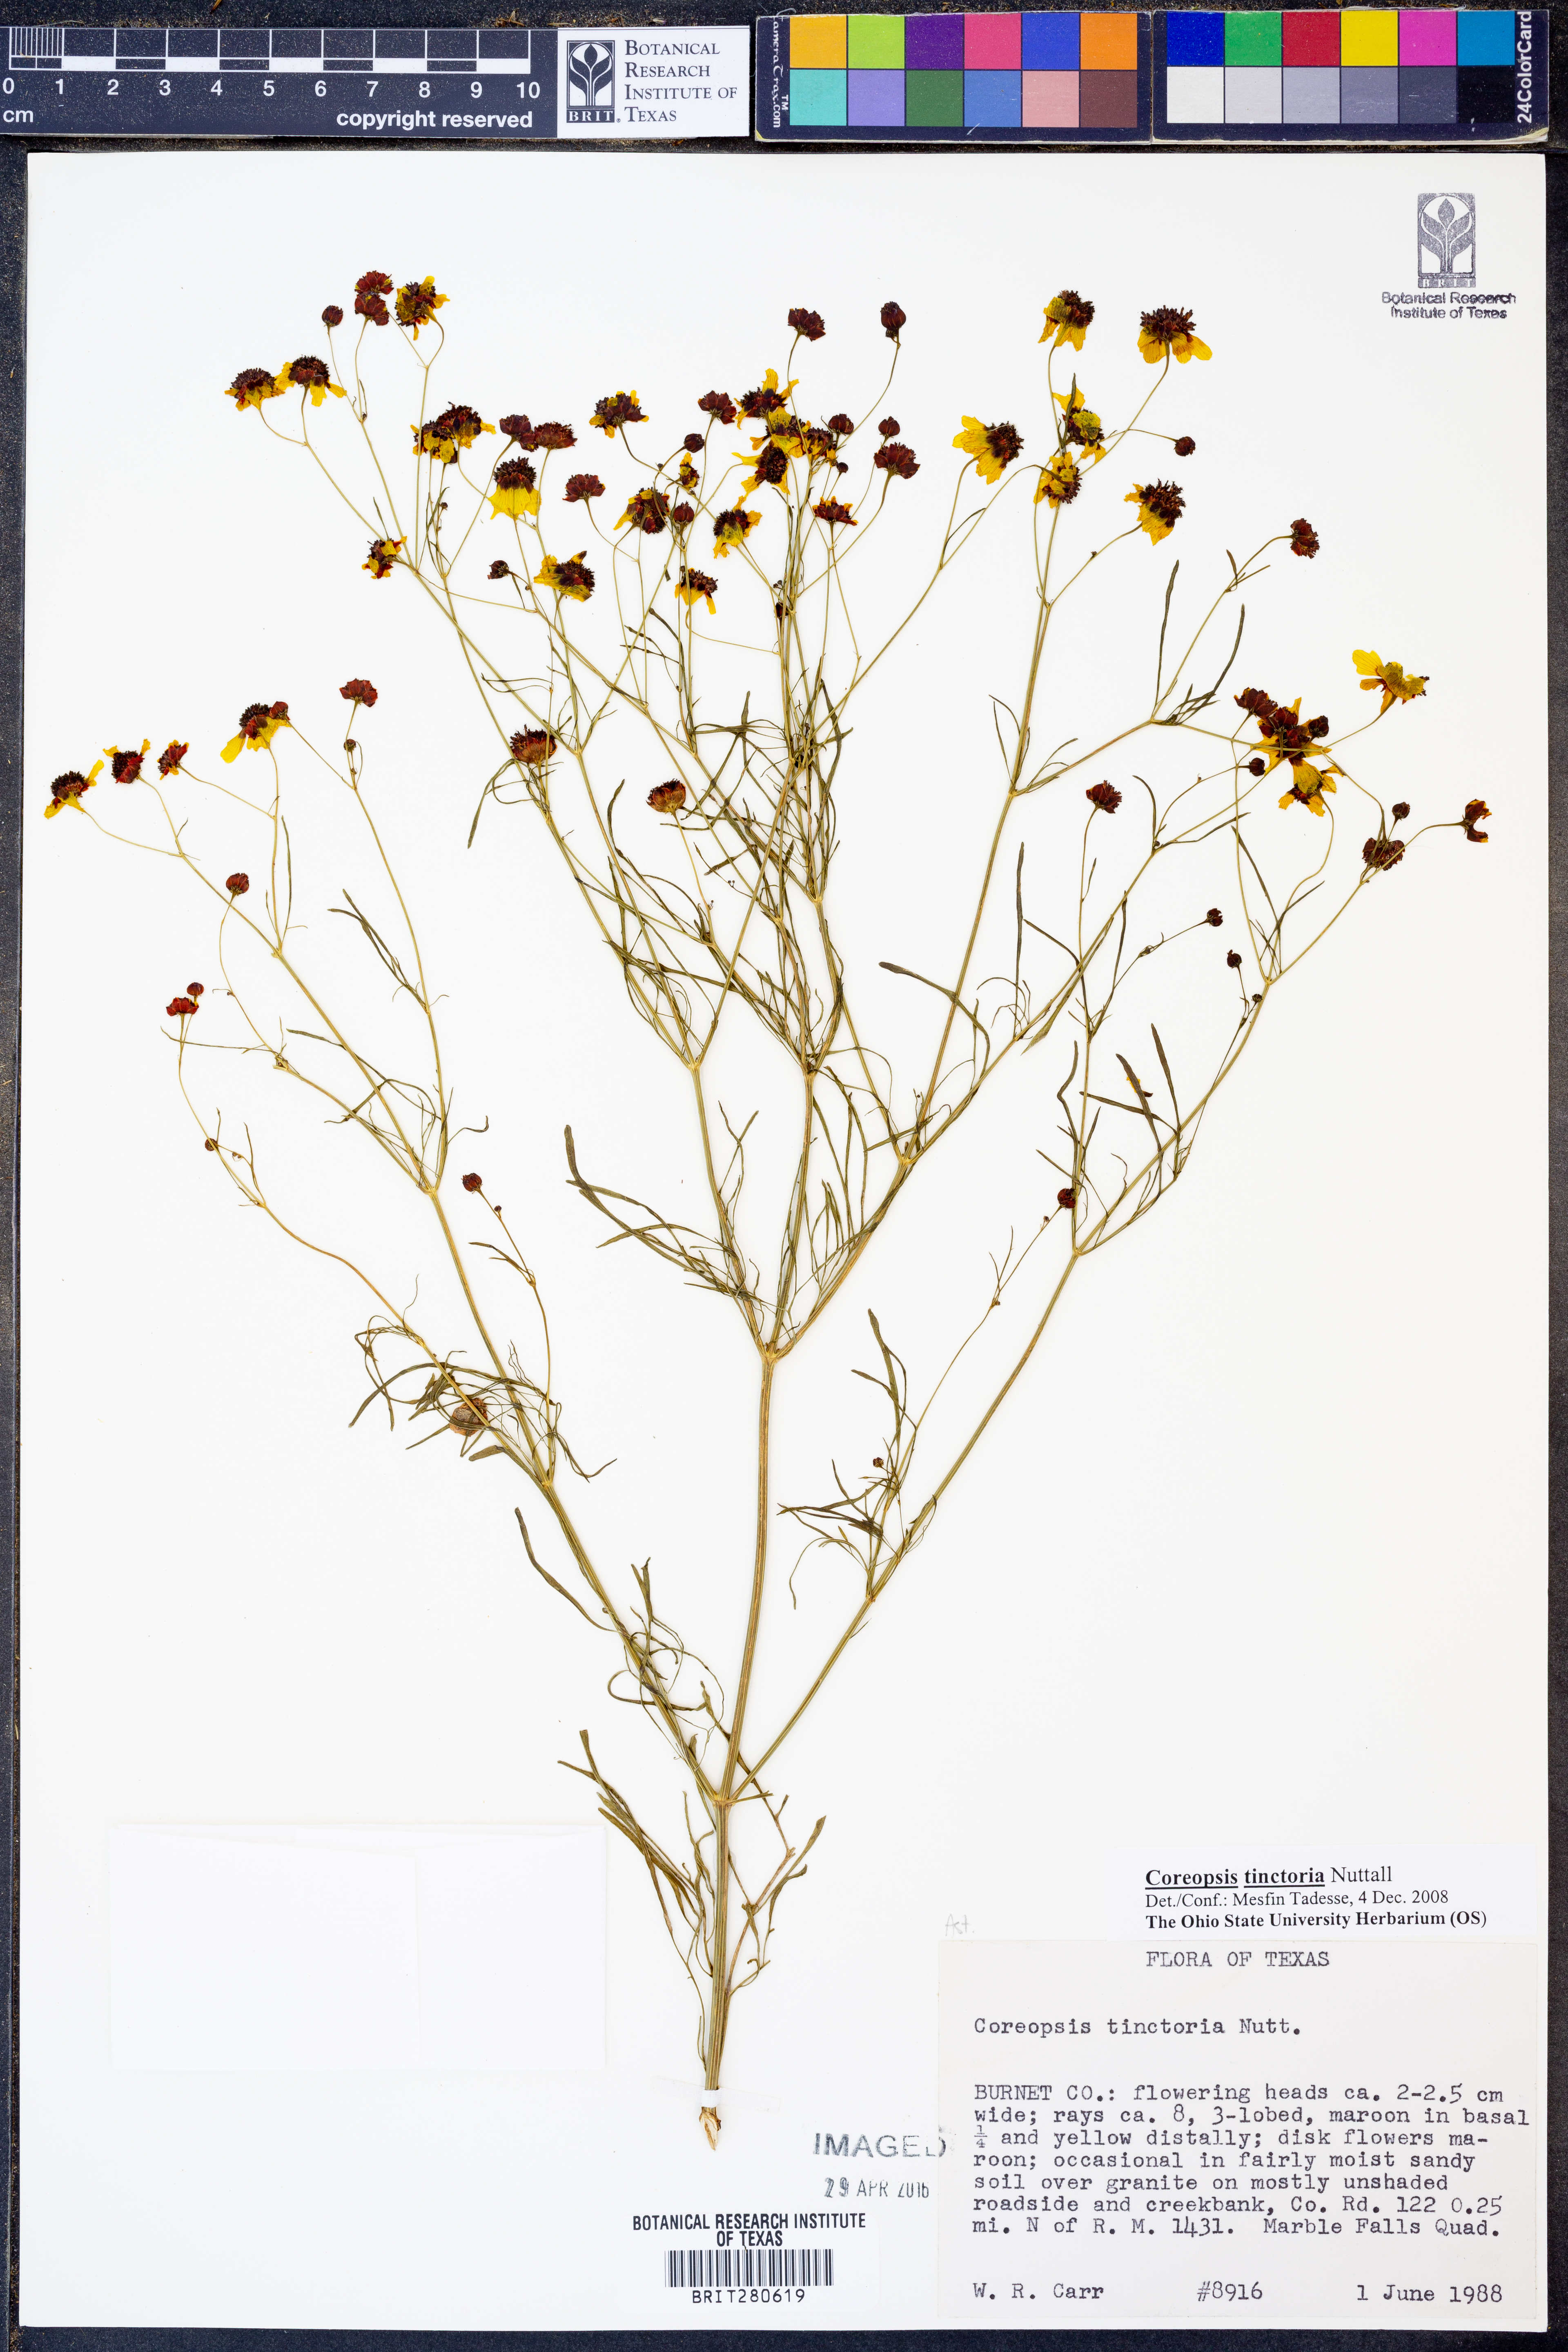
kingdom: Plantae
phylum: Tracheophyta
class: Magnoliopsida
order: Asterales
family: Asteraceae
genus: Coreopsis
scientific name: Coreopsis tinctoria
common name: Garden tickseed
